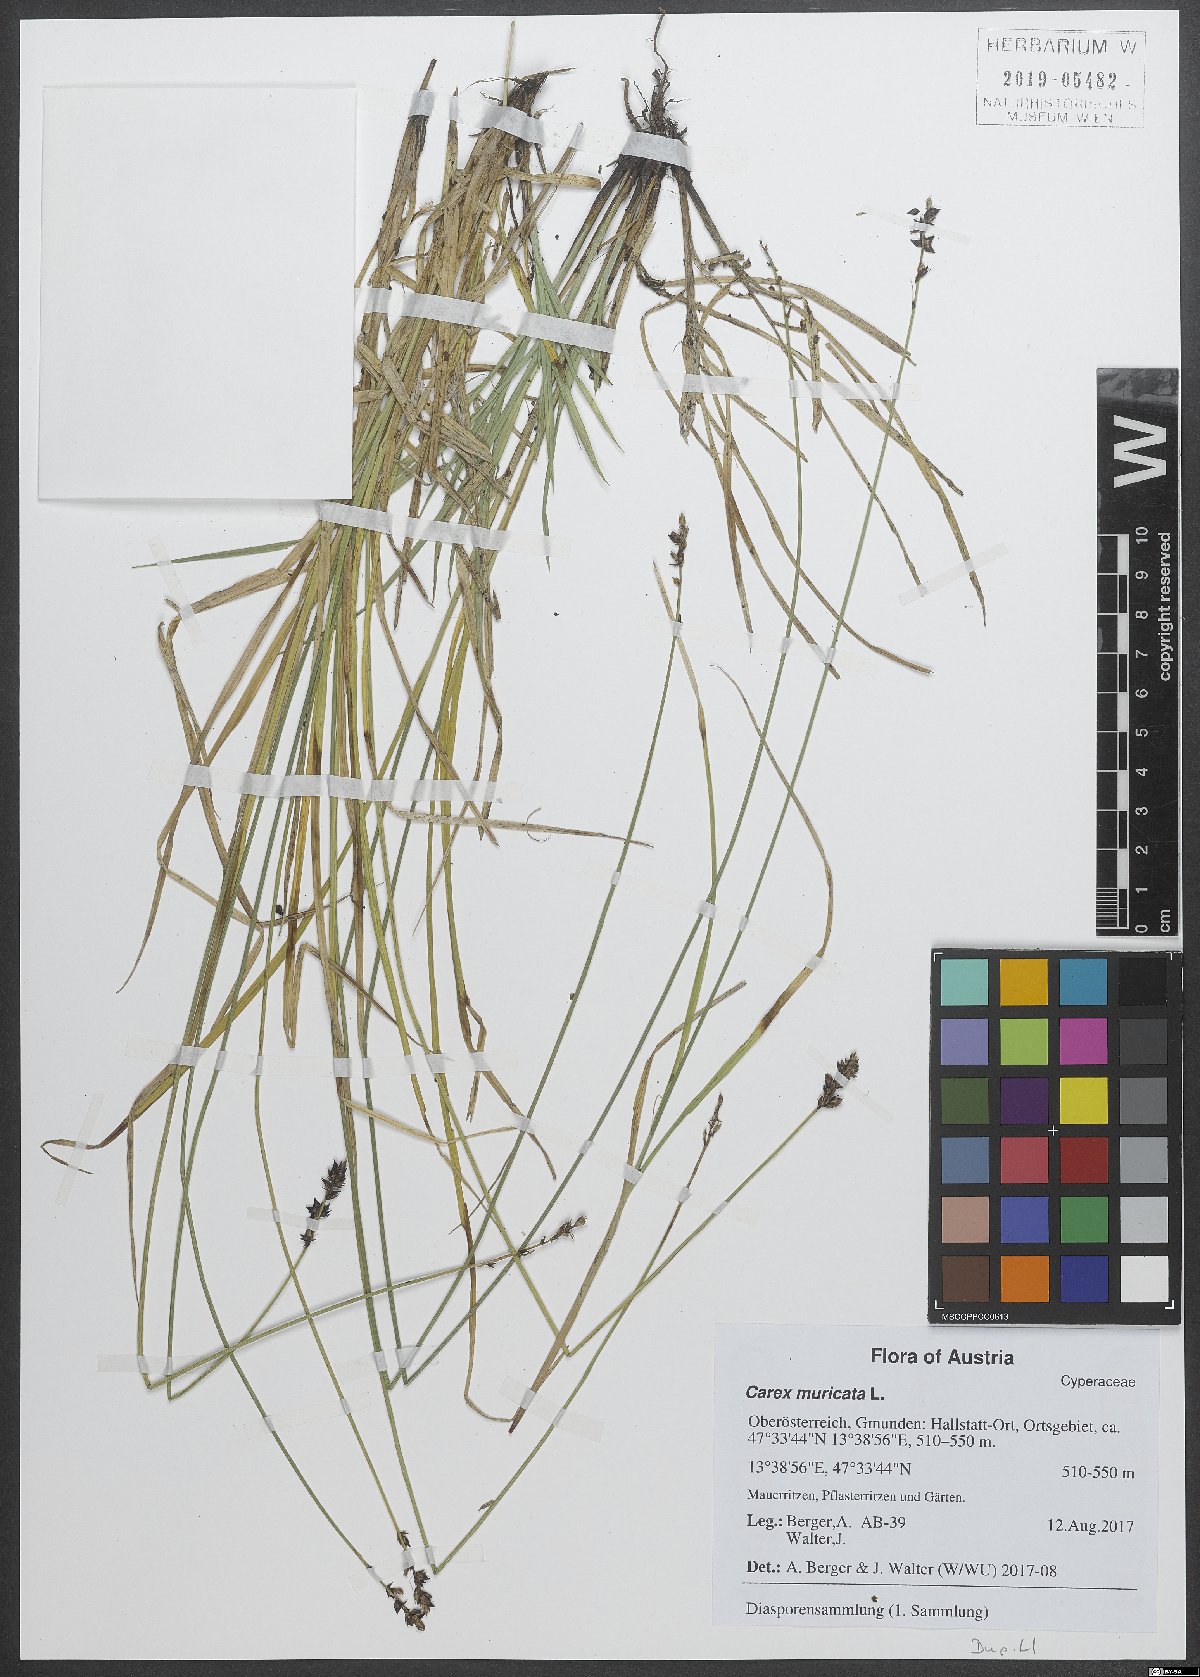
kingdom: Plantae
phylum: Tracheophyta
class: Liliopsida
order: Poales
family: Cyperaceae
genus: Carex
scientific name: Carex muricata
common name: Rough sedge
